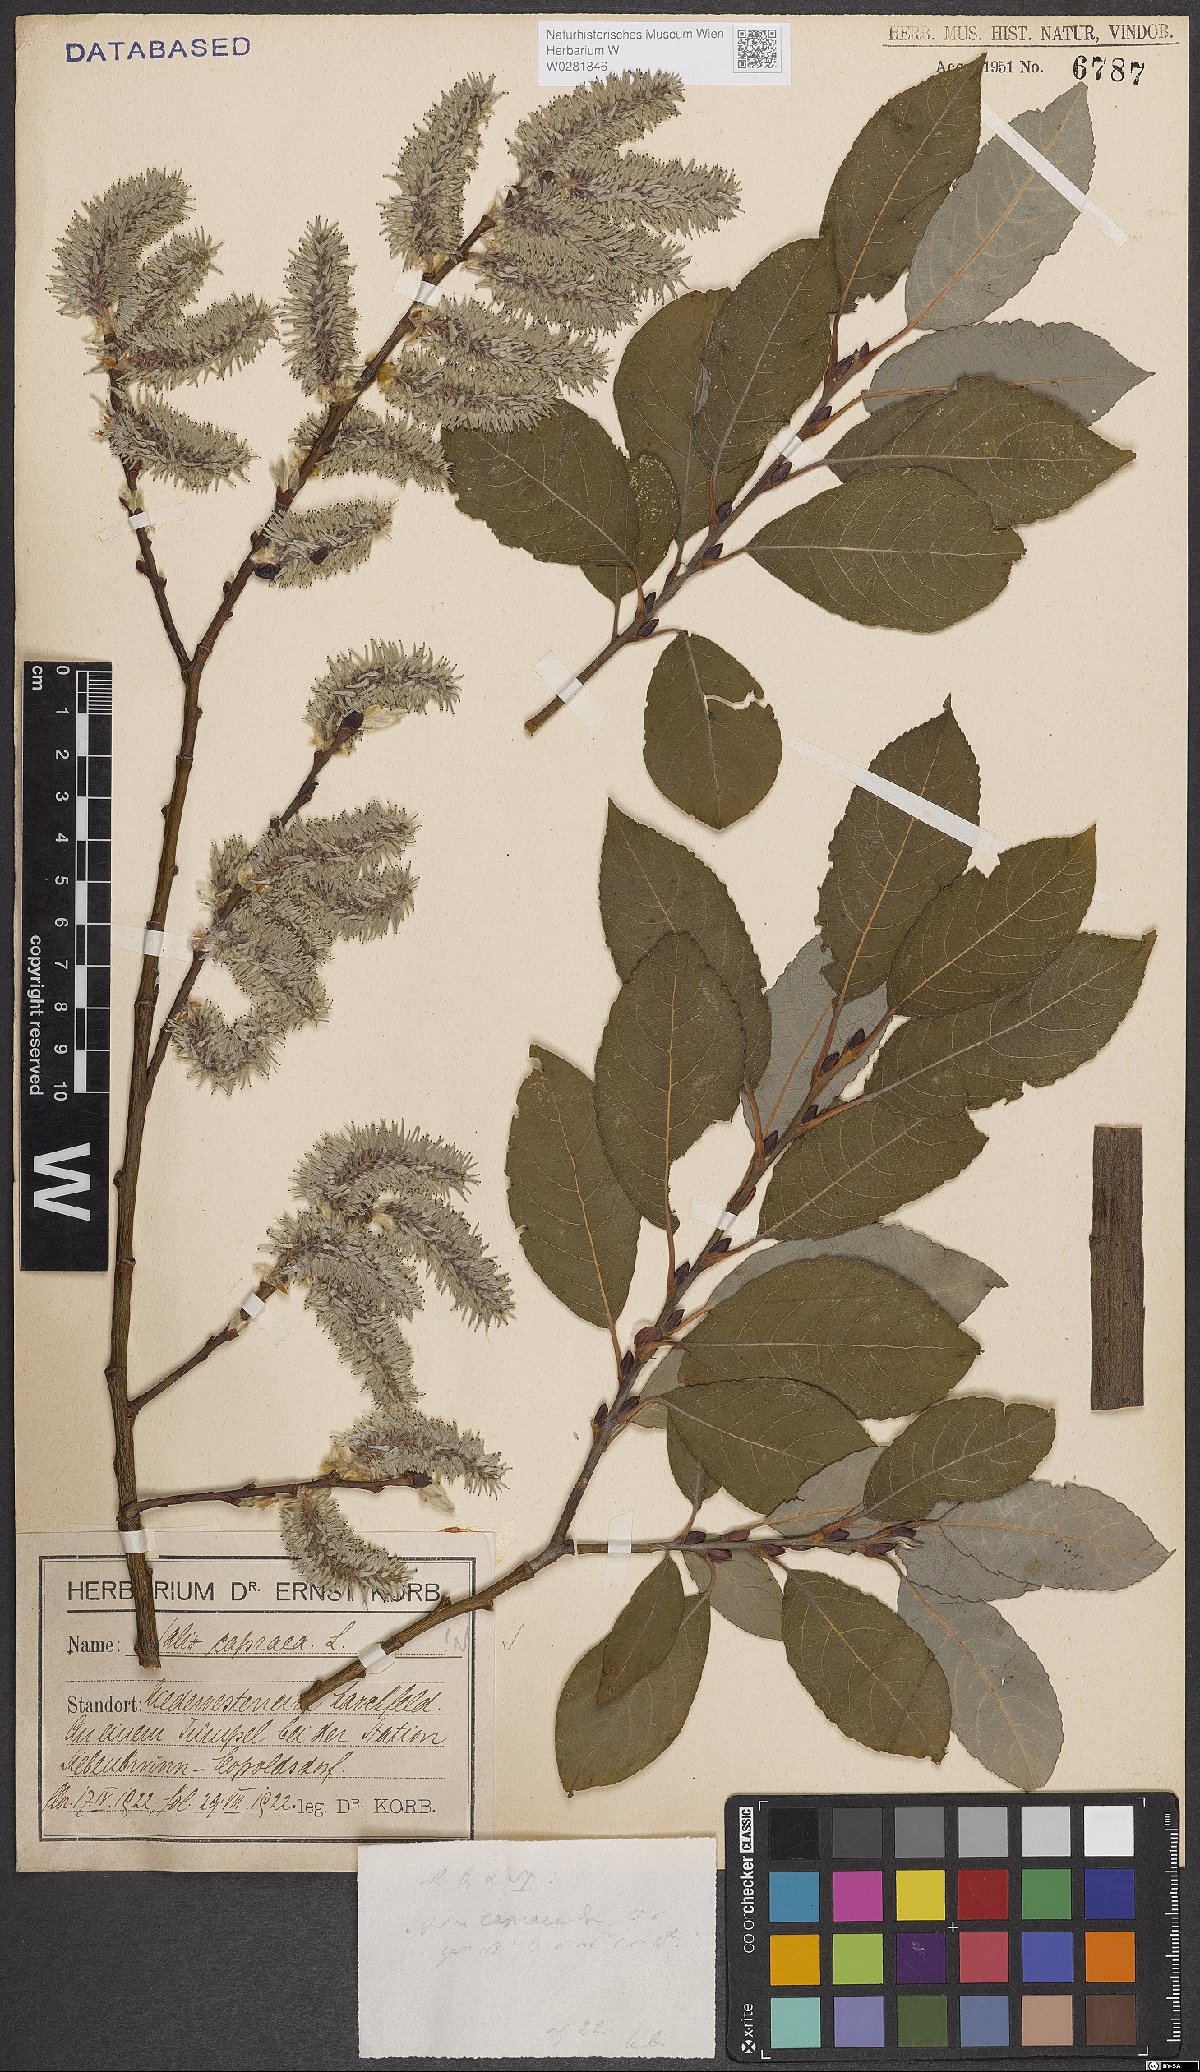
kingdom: Plantae
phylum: Tracheophyta
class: Magnoliopsida
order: Malpighiales
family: Salicaceae
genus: Salix
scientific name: Salix caprea
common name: Goat willow
